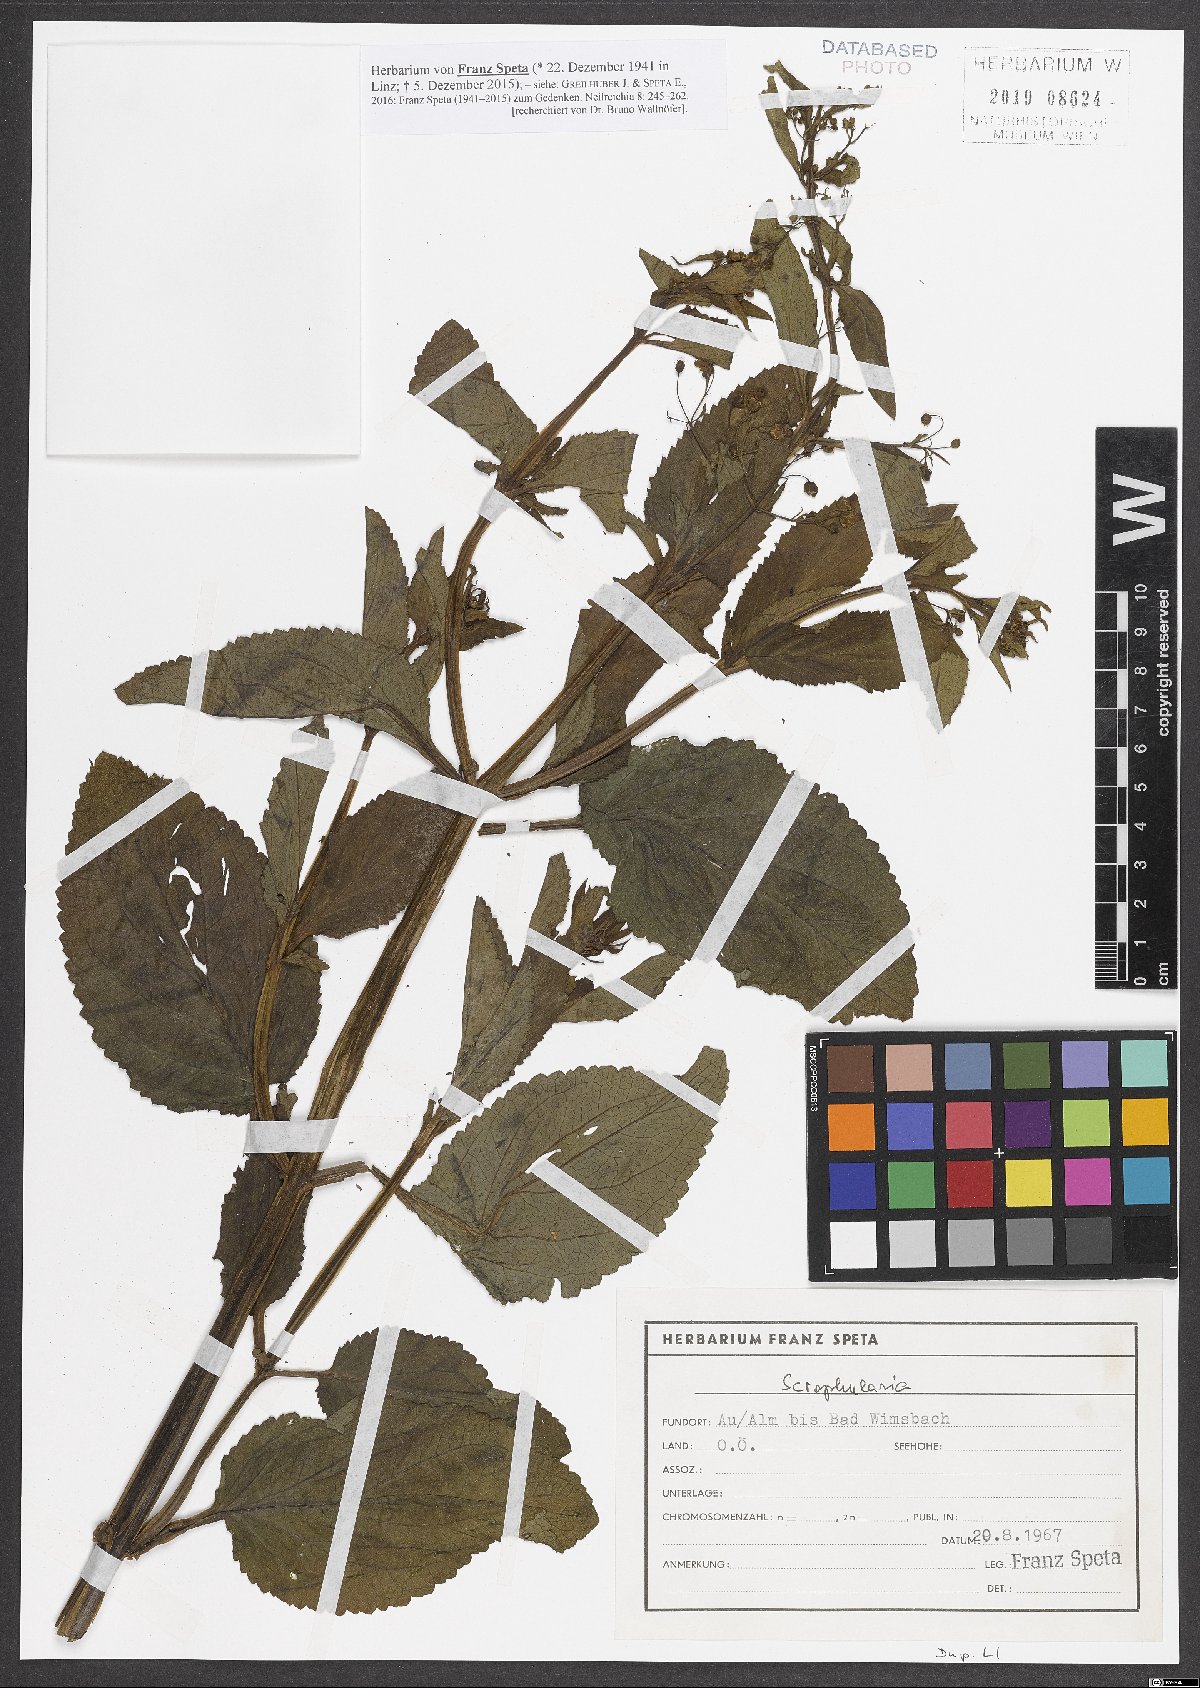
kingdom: Plantae
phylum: Tracheophyta
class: Magnoliopsida
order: Lamiales
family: Scrophulariaceae
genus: Scrophularia
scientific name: Scrophularia
